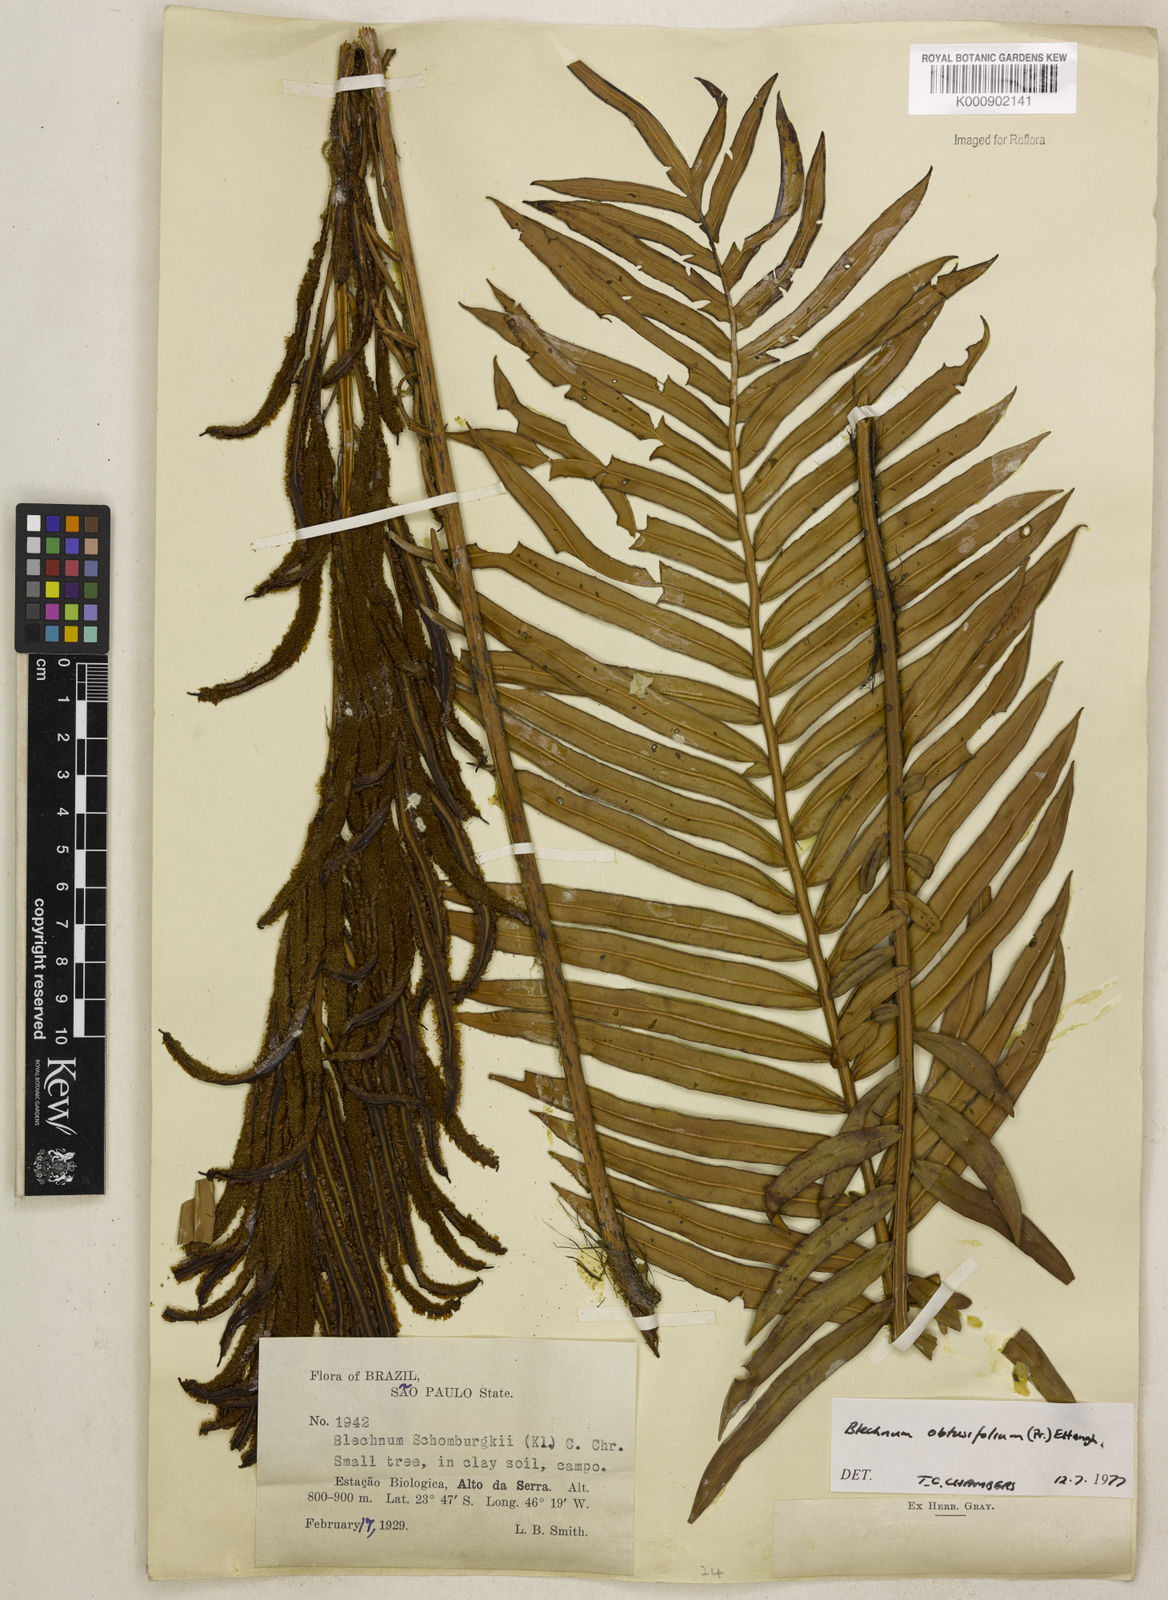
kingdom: Plantae
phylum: Tracheophyta
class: Polypodiopsida
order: Polypodiales
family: Blechnaceae
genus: Lomariocycas
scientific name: Lomariocycas obtusifolia
